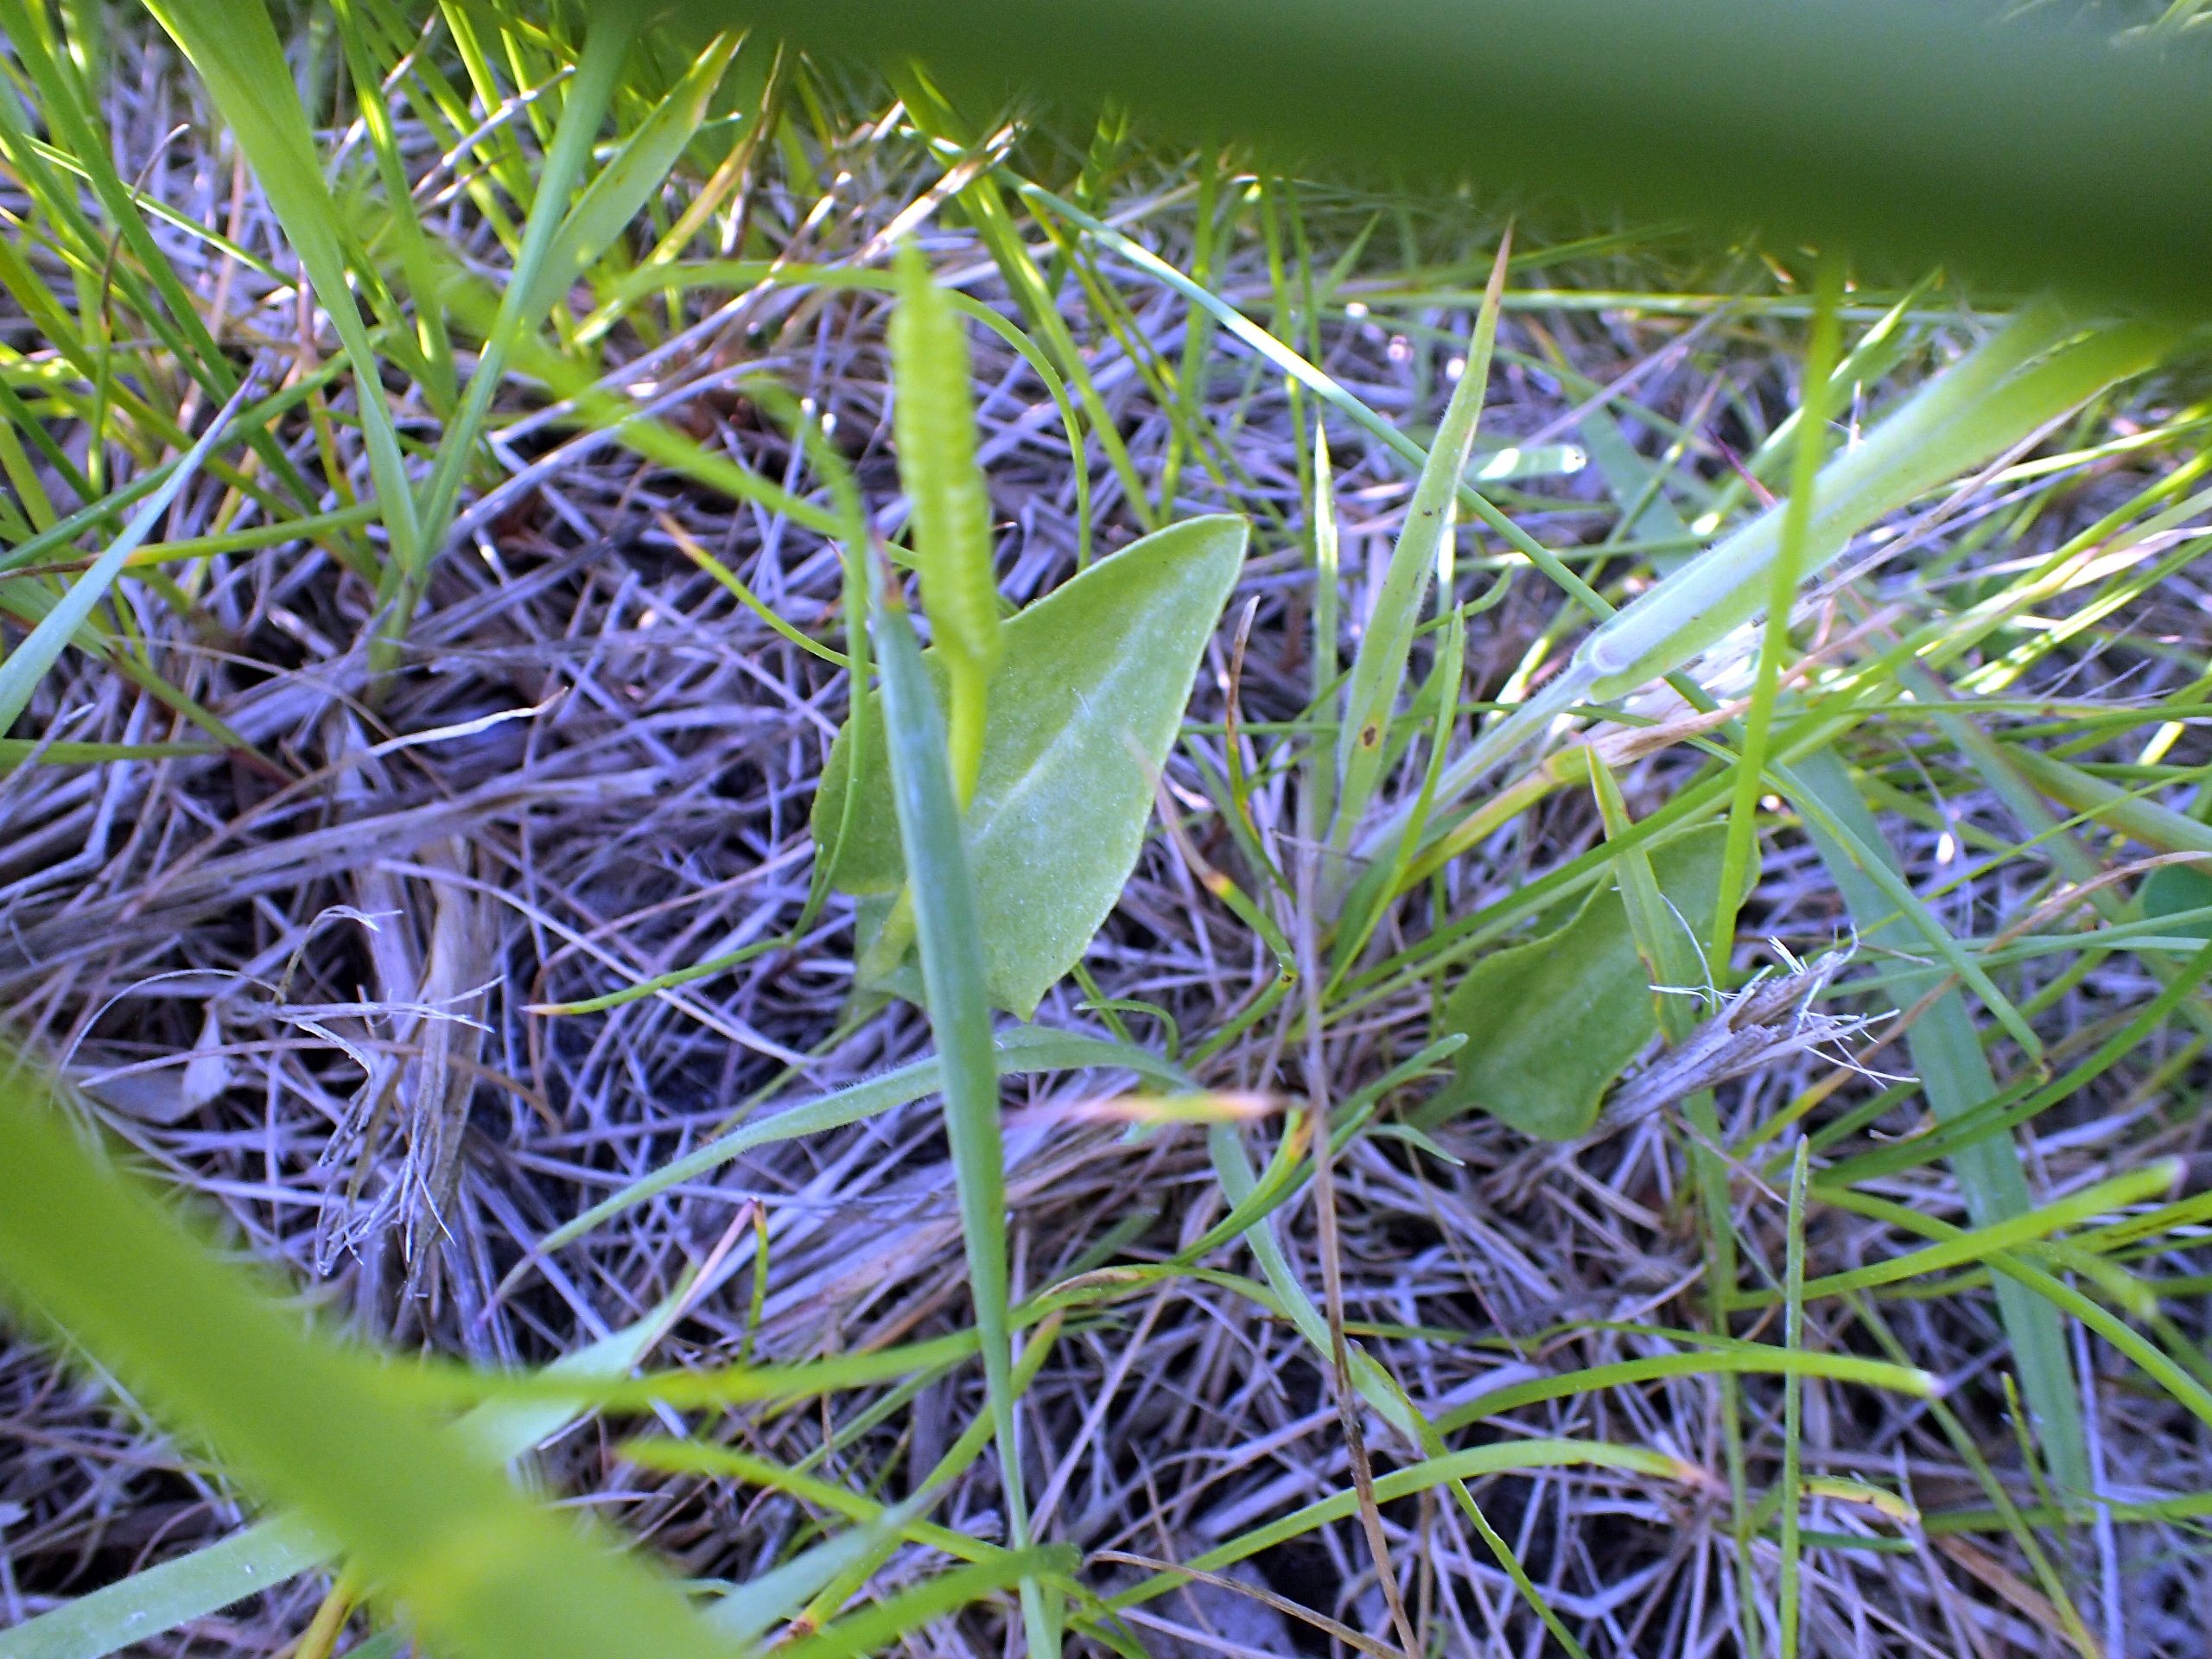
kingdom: Plantae
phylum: Tracheophyta
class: Polypodiopsida
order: Ophioglossales
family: Ophioglossaceae
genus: Ophioglossum
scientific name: Ophioglossum vulgatum
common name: Slangetunge
